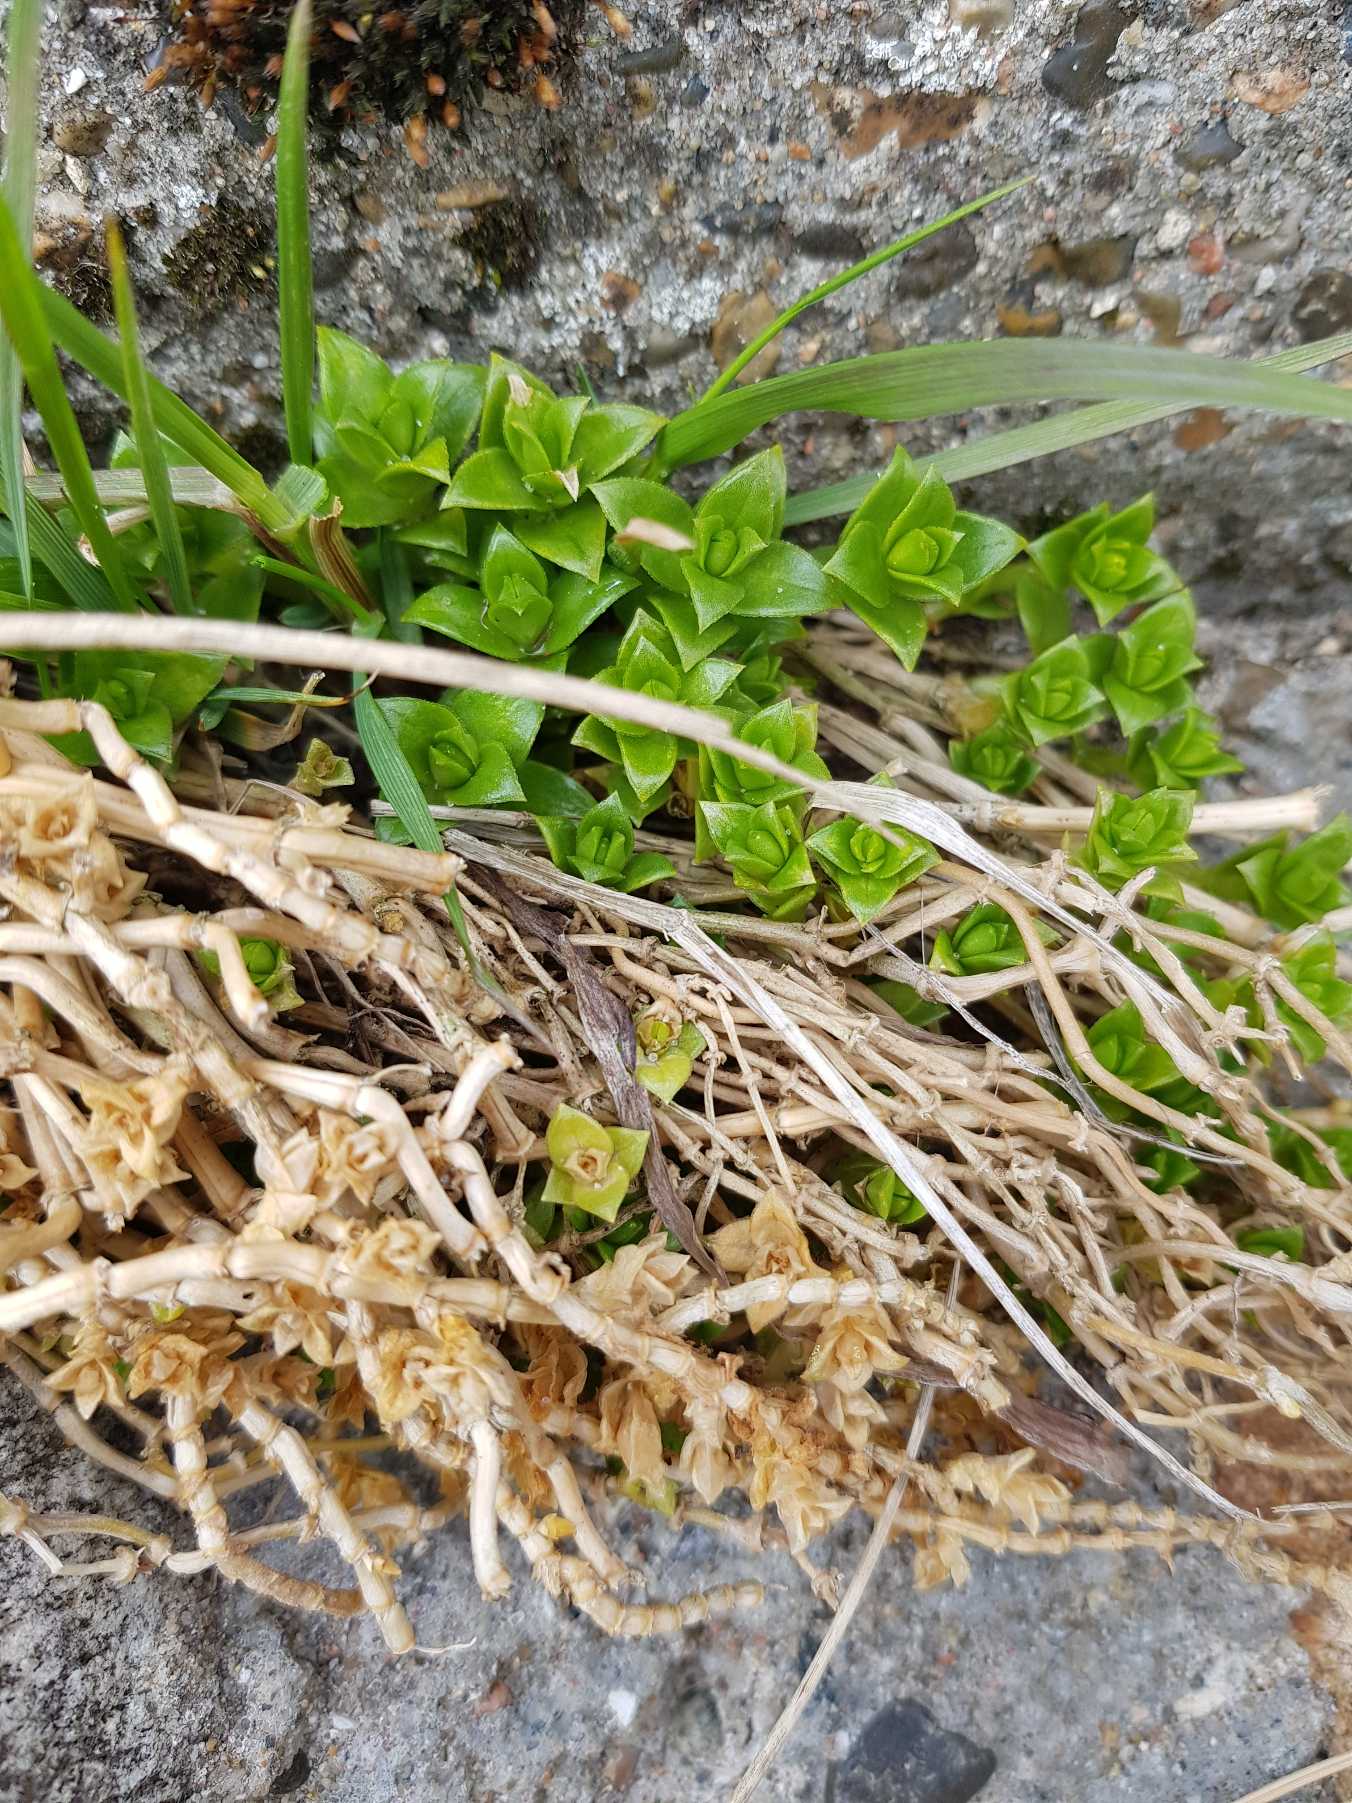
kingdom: Plantae
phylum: Tracheophyta
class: Magnoliopsida
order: Caryophyllales
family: Caryophyllaceae
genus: Honckenya
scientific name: Honckenya peploides
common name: Strandarve
